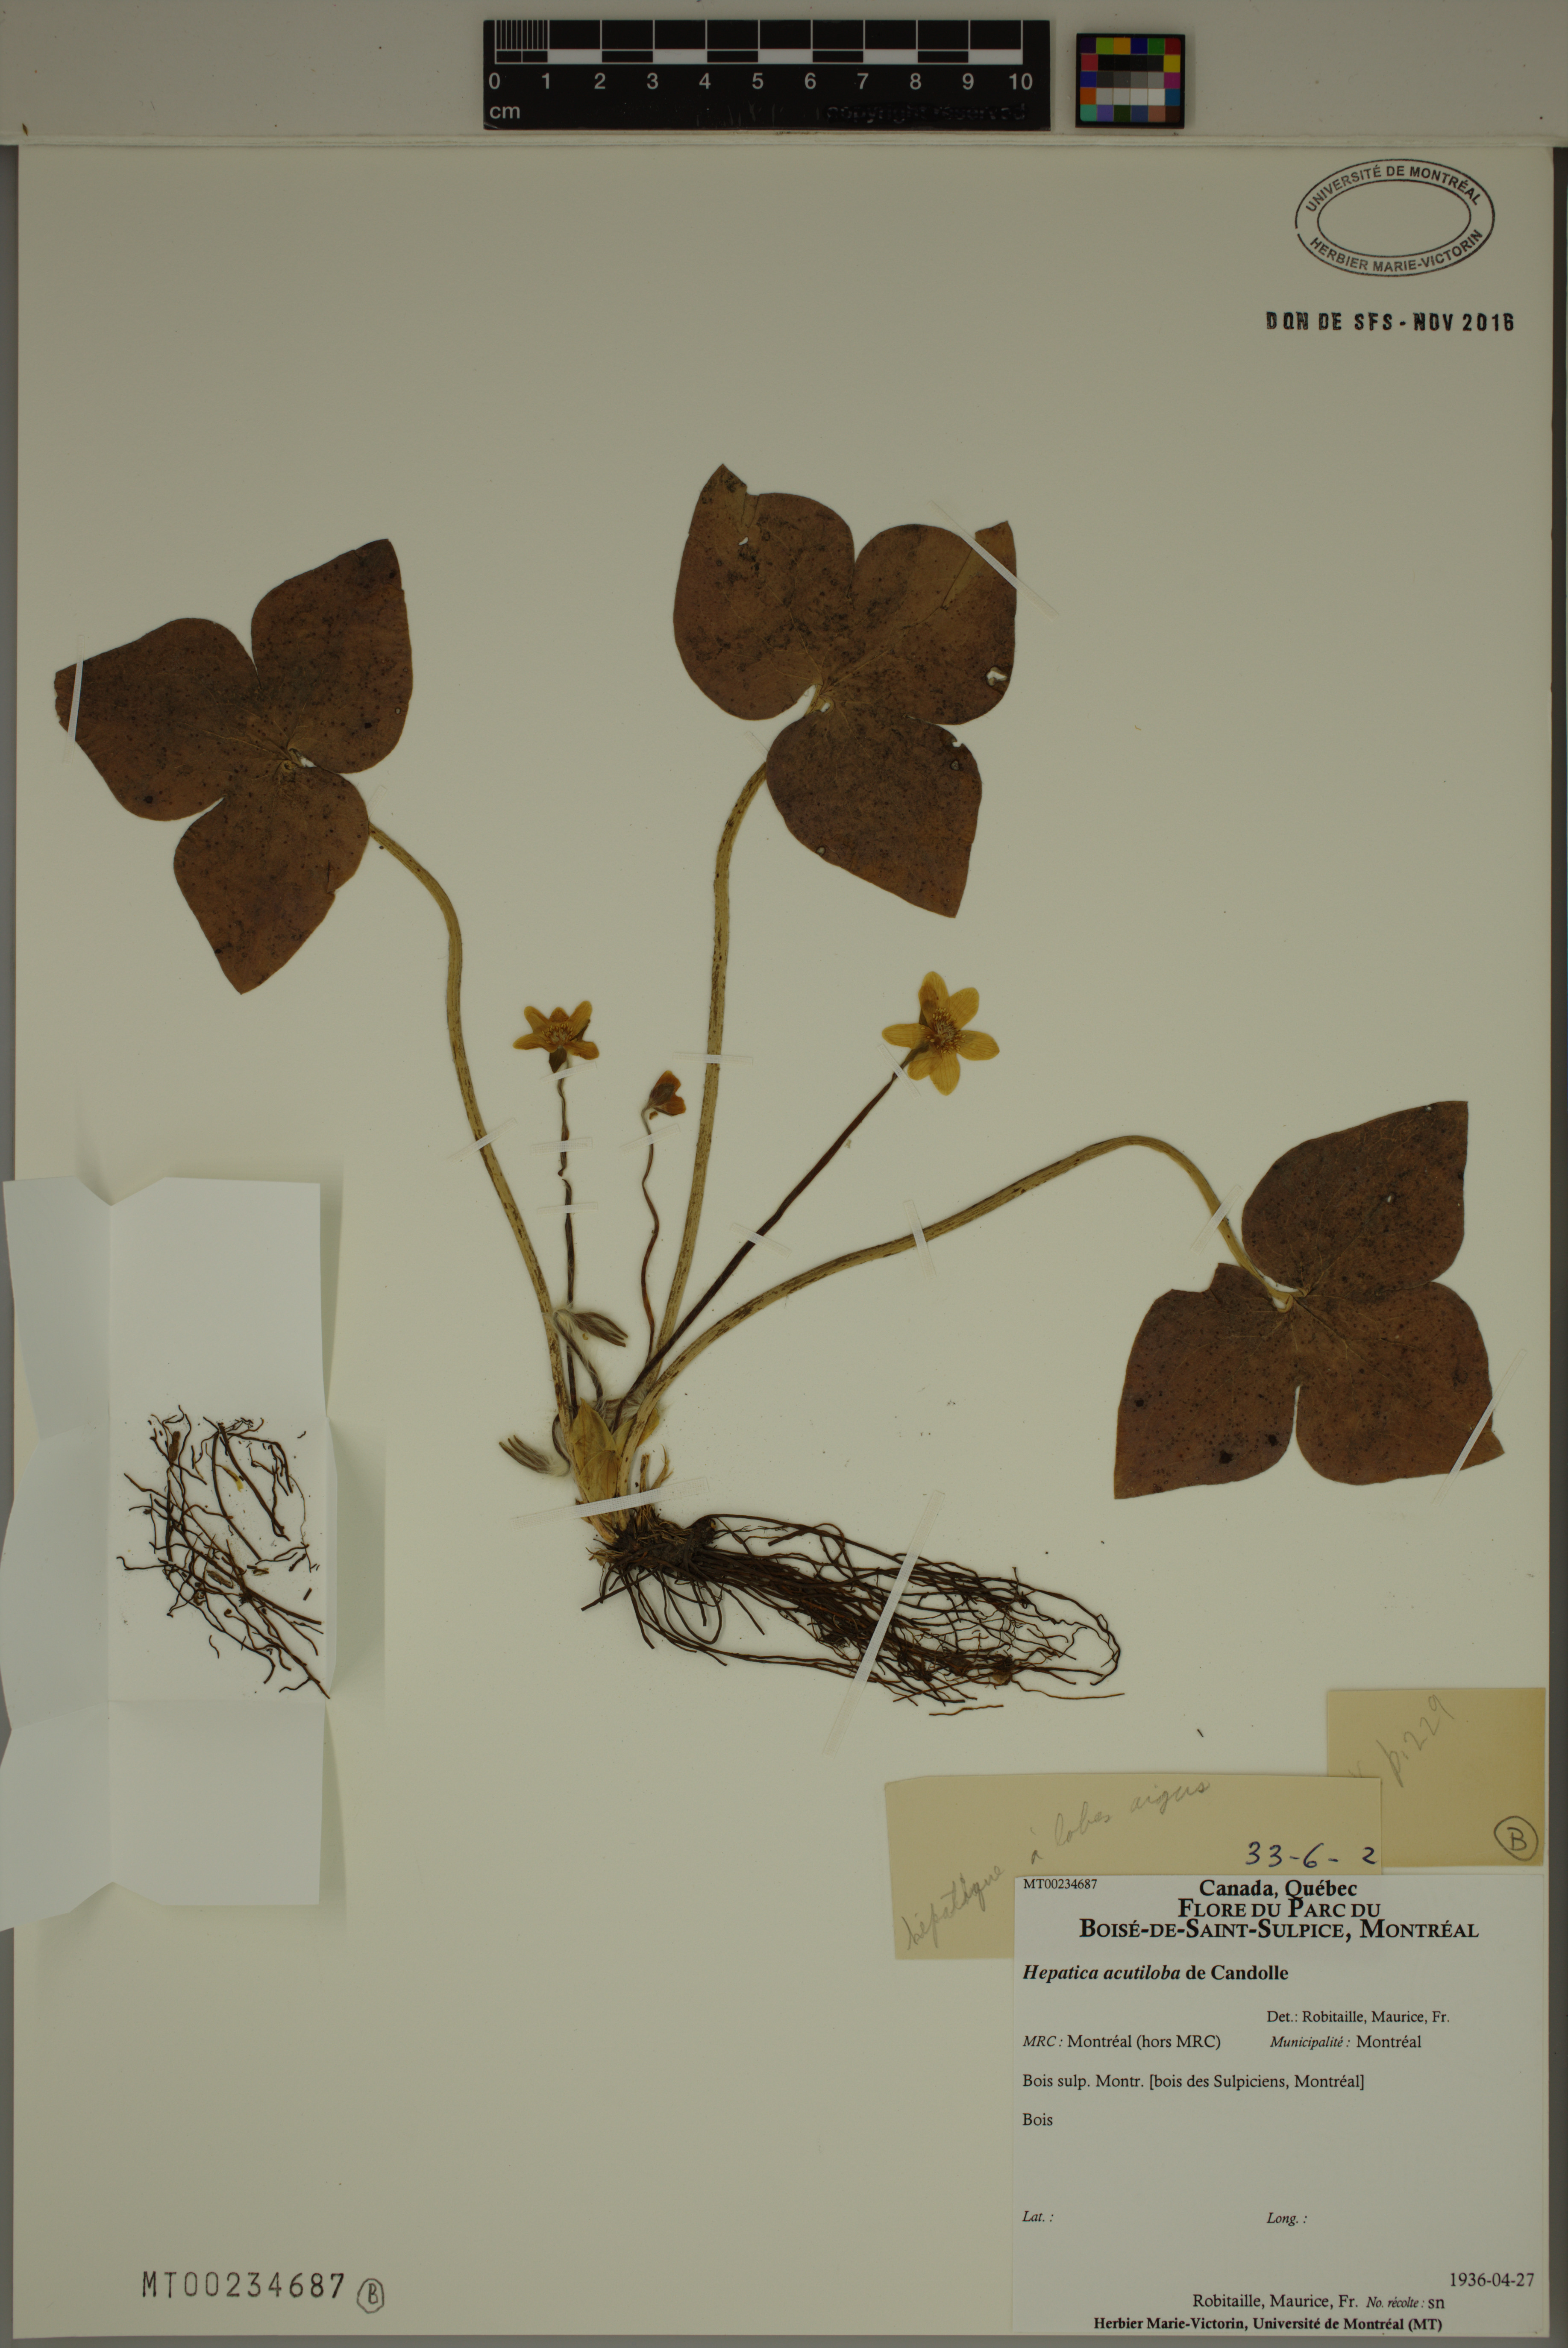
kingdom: Plantae
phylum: Tracheophyta
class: Magnoliopsida
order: Ranunculales
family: Ranunculaceae
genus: Hepatica
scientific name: Hepatica acutiloba
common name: Sharp-lobed hepatica
